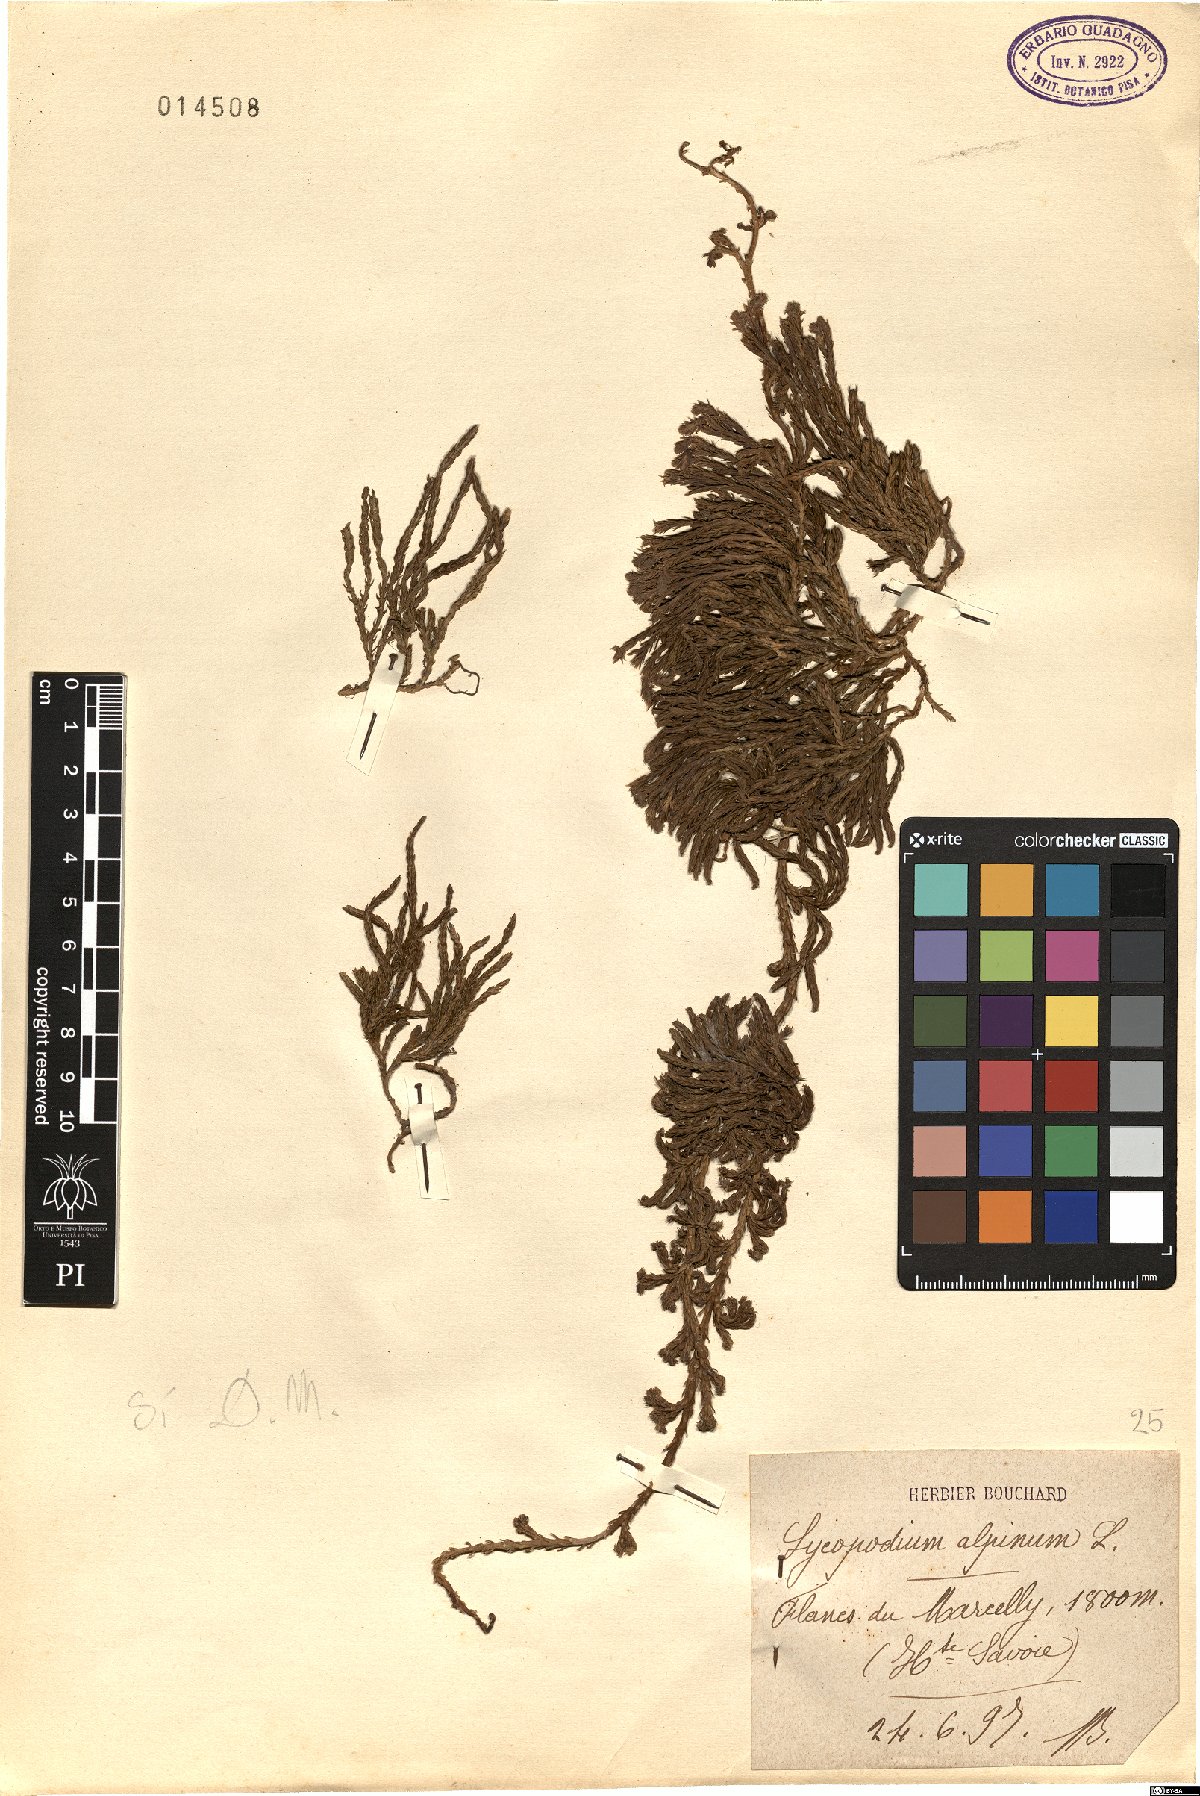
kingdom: Plantae
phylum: Tracheophyta
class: Lycopodiopsida
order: Lycopodiales
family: Lycopodiaceae
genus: Diphasiastrum
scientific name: Diphasiastrum alpinum
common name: Alpine clubmoss
